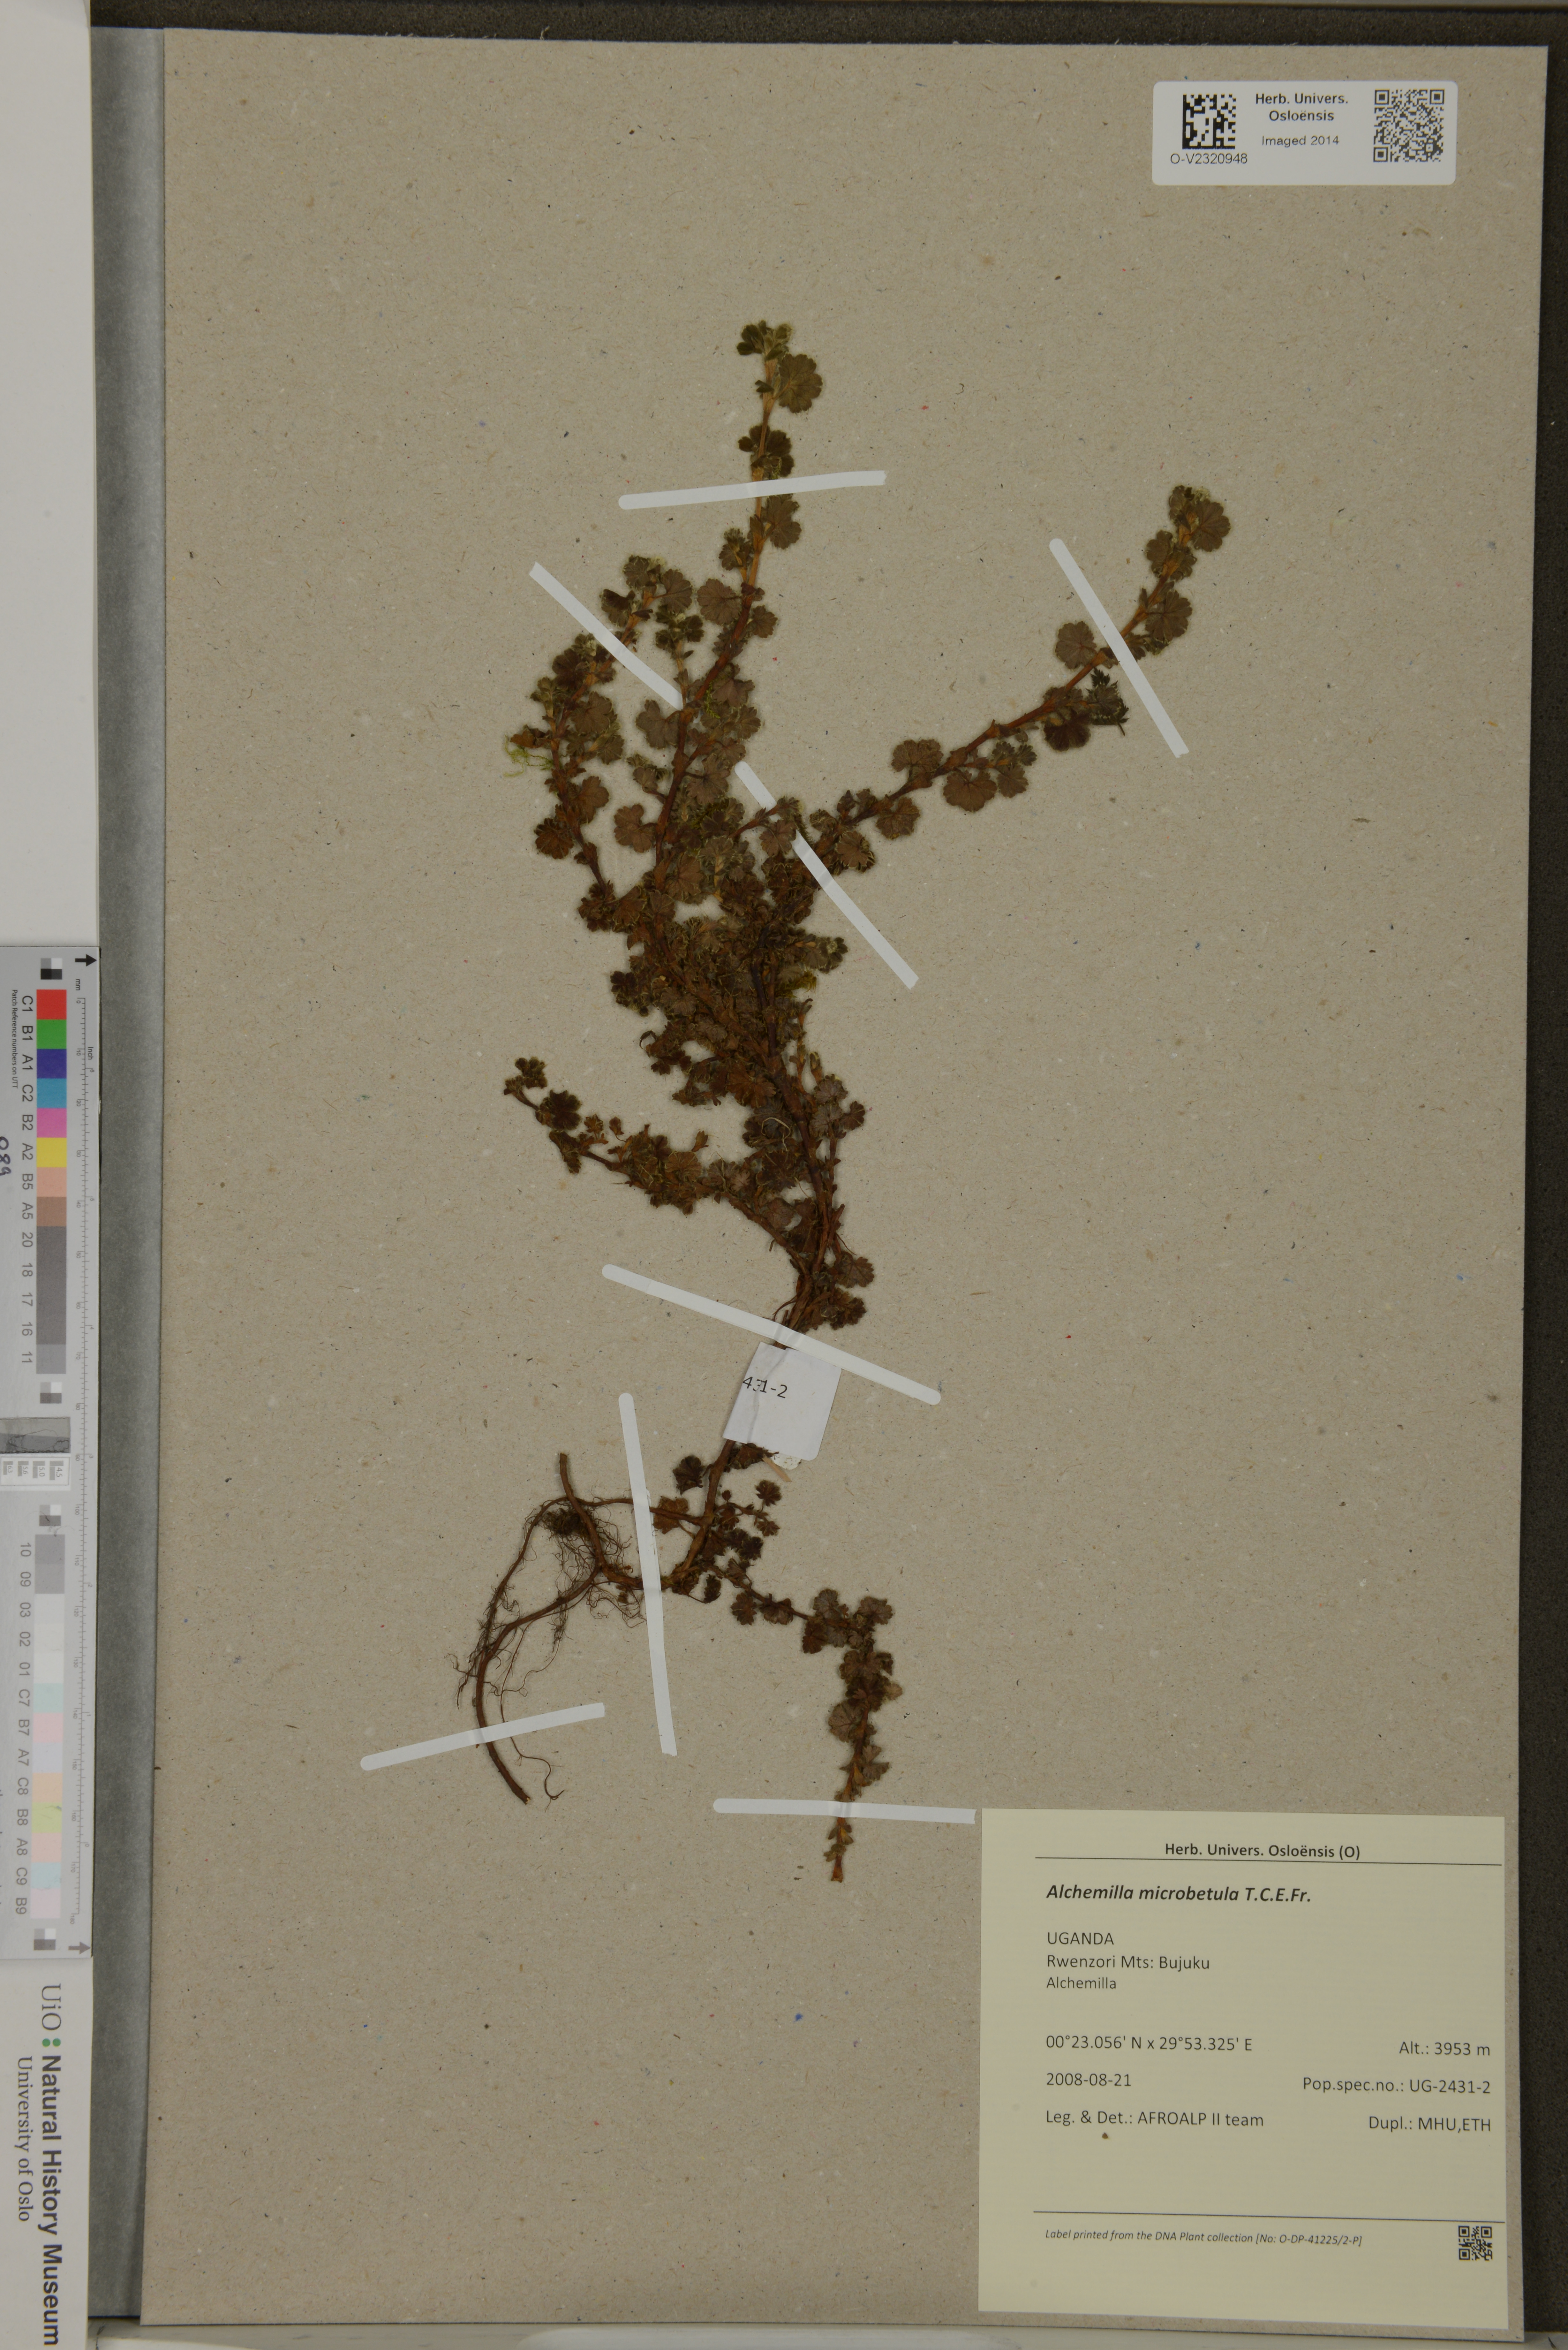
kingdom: Plantae
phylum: Tracheophyta
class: Magnoliopsida
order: Rosales
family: Rosaceae
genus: Alchemilla
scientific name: Alchemilla microbetula
